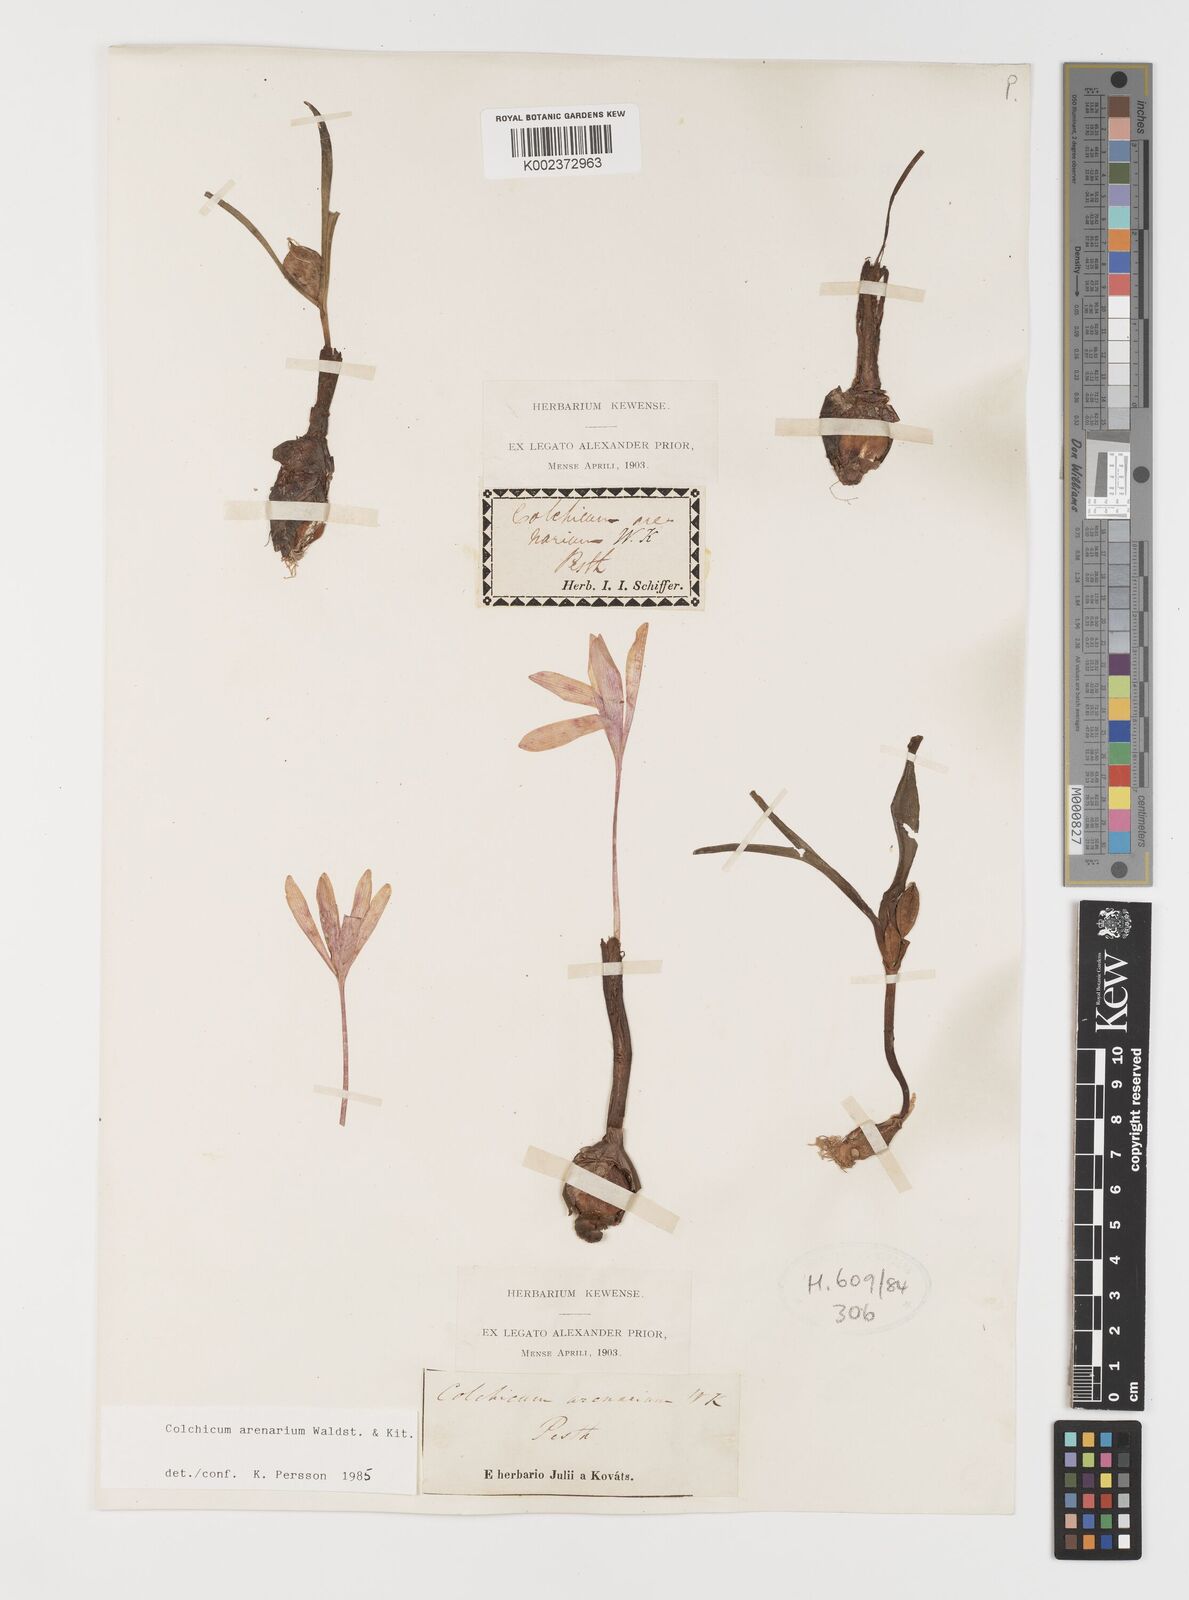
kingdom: Plantae
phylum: Tracheophyta
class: Liliopsida
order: Liliales
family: Colchicaceae
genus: Colchicum
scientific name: Colchicum arenarium
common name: Sand saffron
